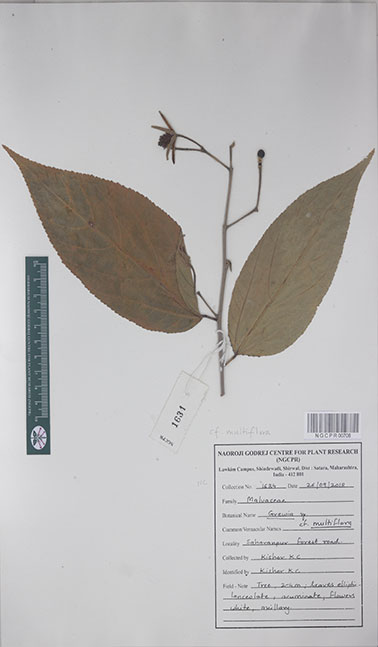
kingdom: Plantae
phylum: Tracheophyta
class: Magnoliopsida
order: Malvales
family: Malvaceae
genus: Grewia
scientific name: Grewia multiflora
